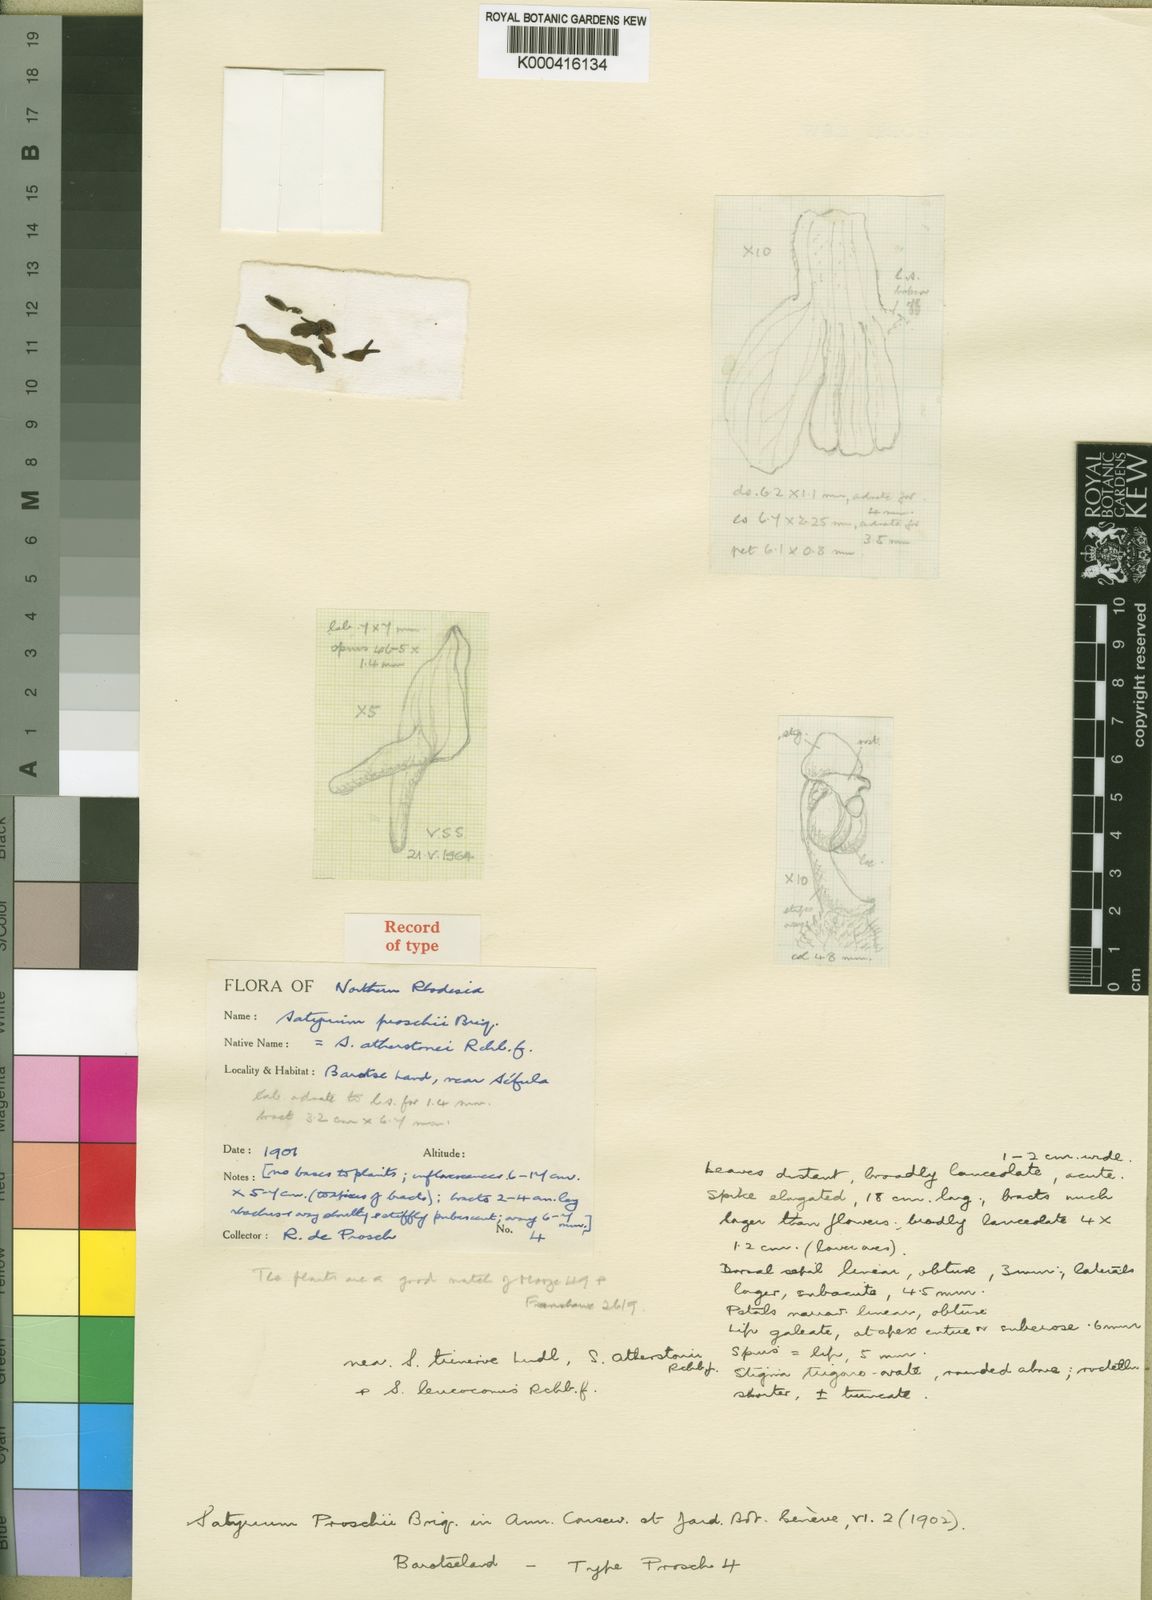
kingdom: Plantae
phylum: Tracheophyta
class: Liliopsida
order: Asparagales
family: Orchidaceae
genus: Satyrium
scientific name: Satyrium trinerve
